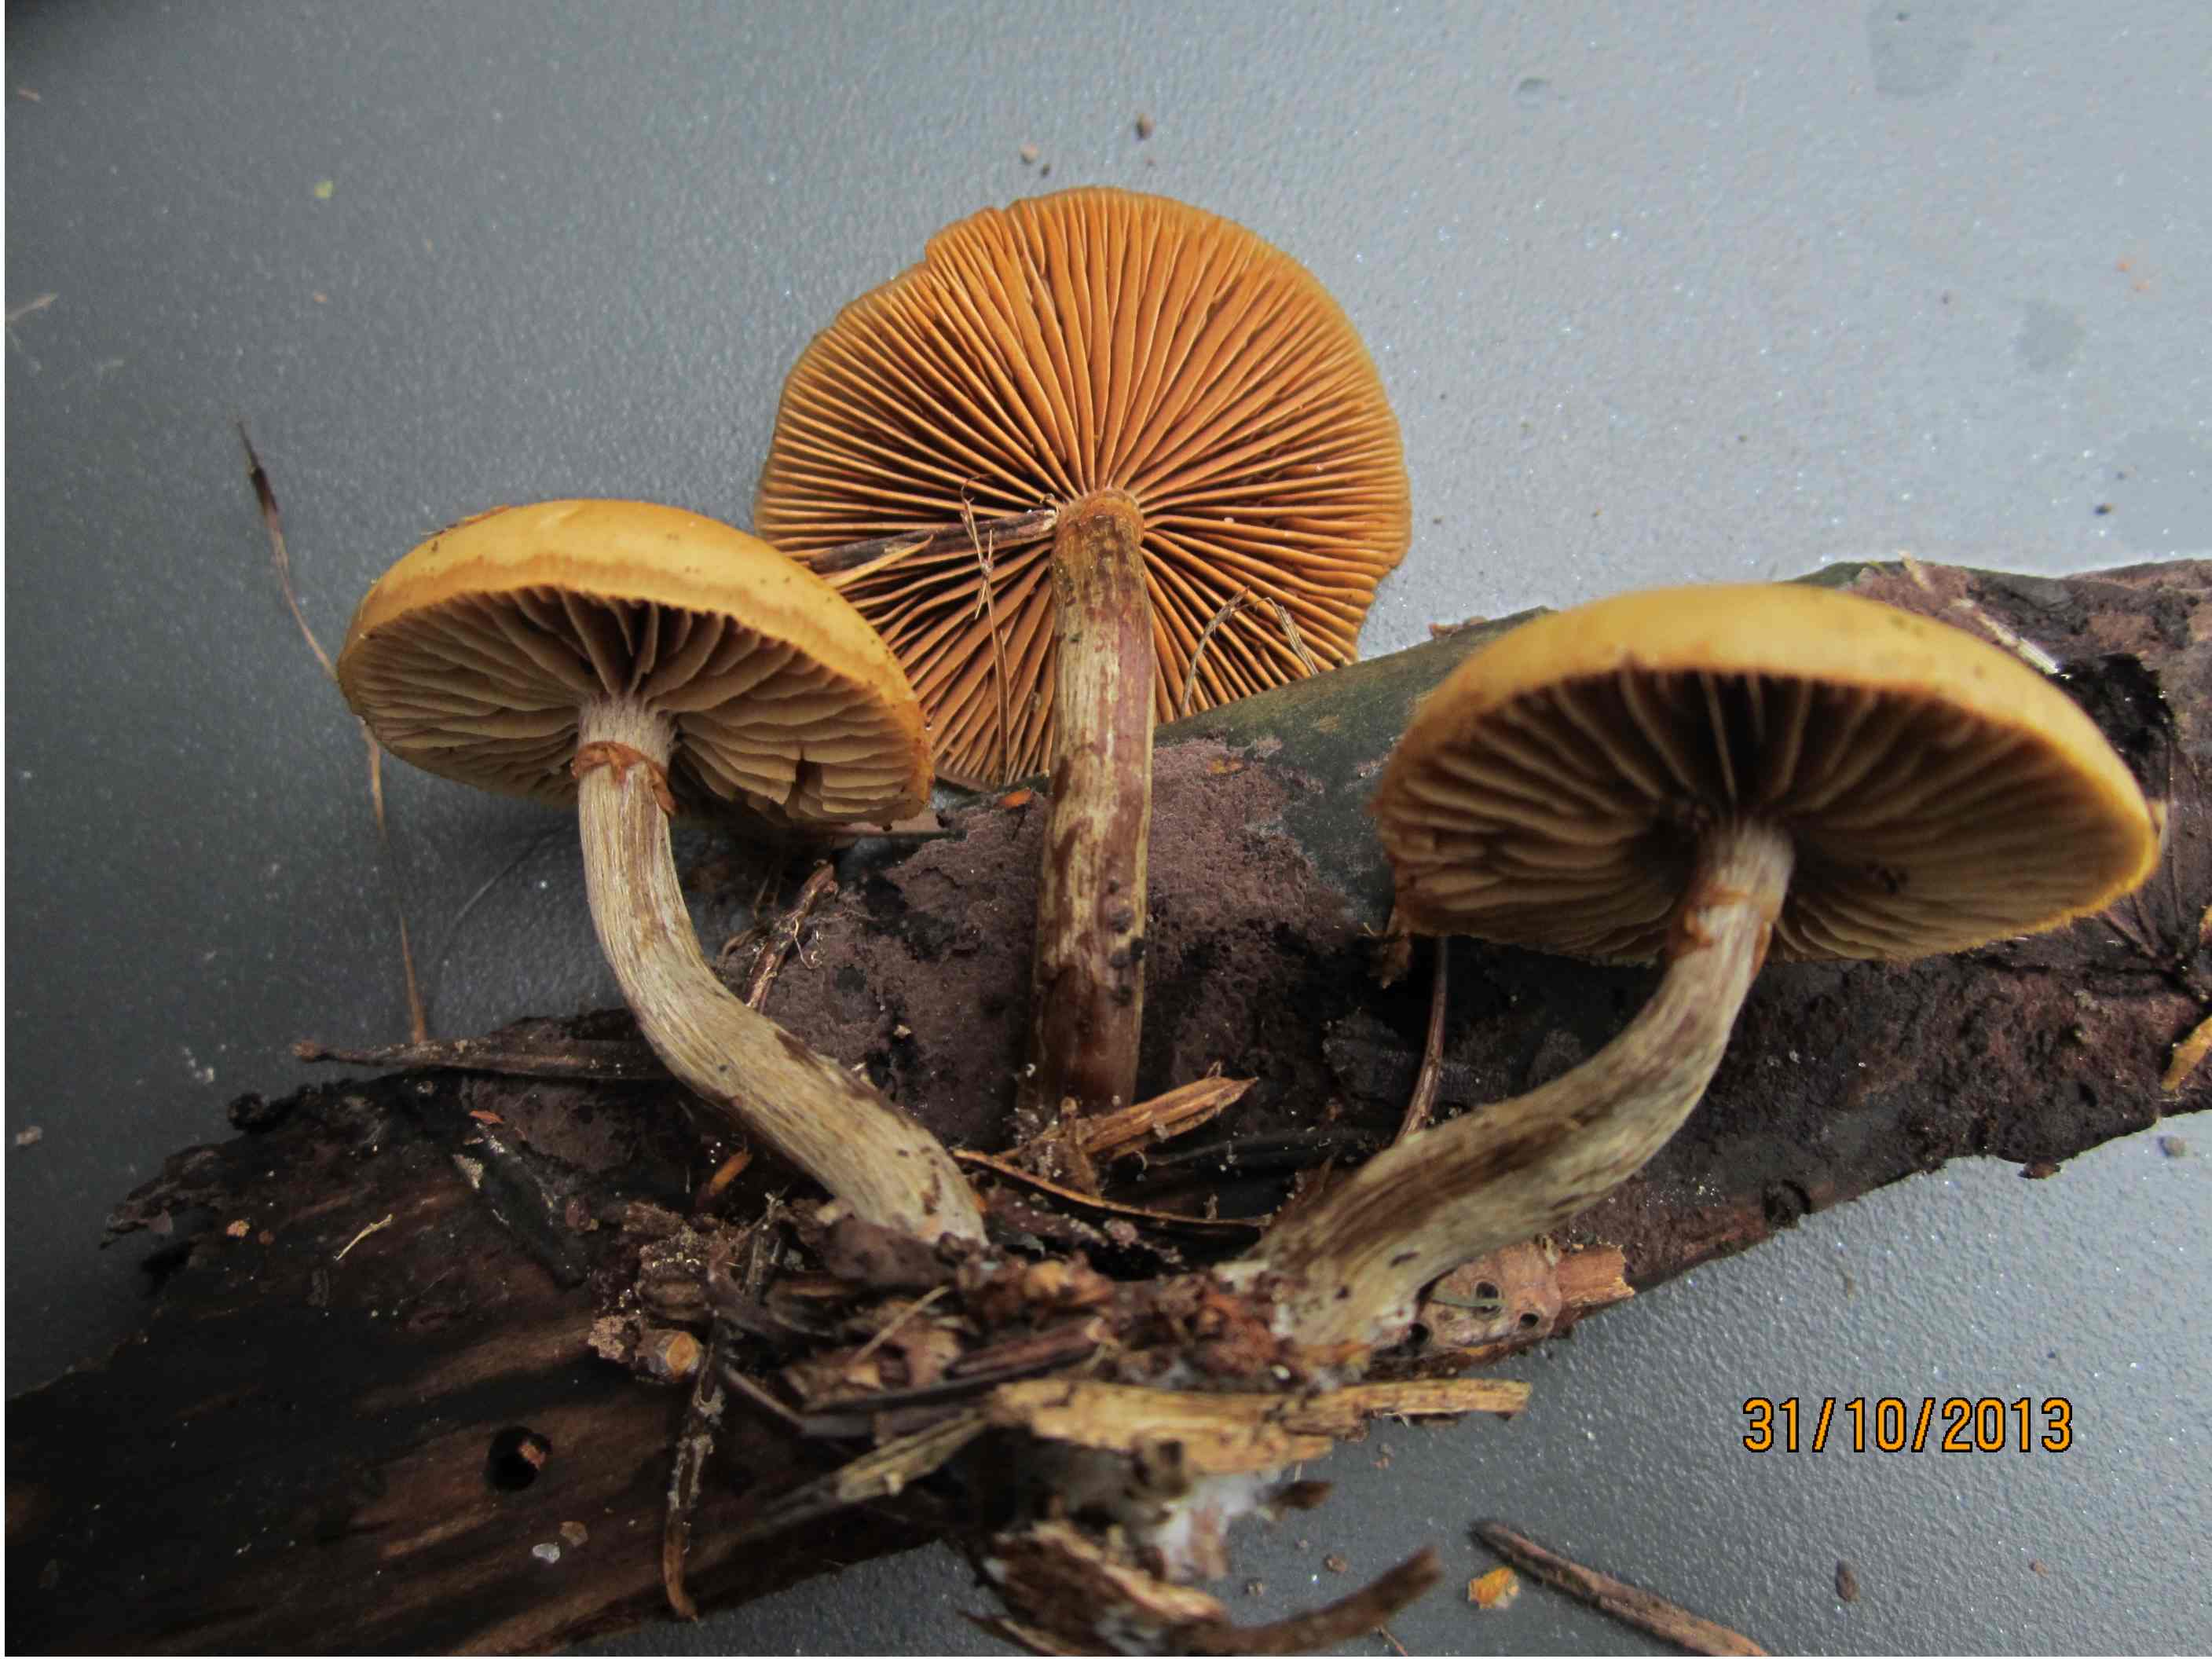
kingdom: Fungi
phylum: Basidiomycota
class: Agaricomycetes
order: Agaricales
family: Hymenogastraceae
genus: Galerina
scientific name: Galerina marginata
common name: randbæltet hjelmhat
